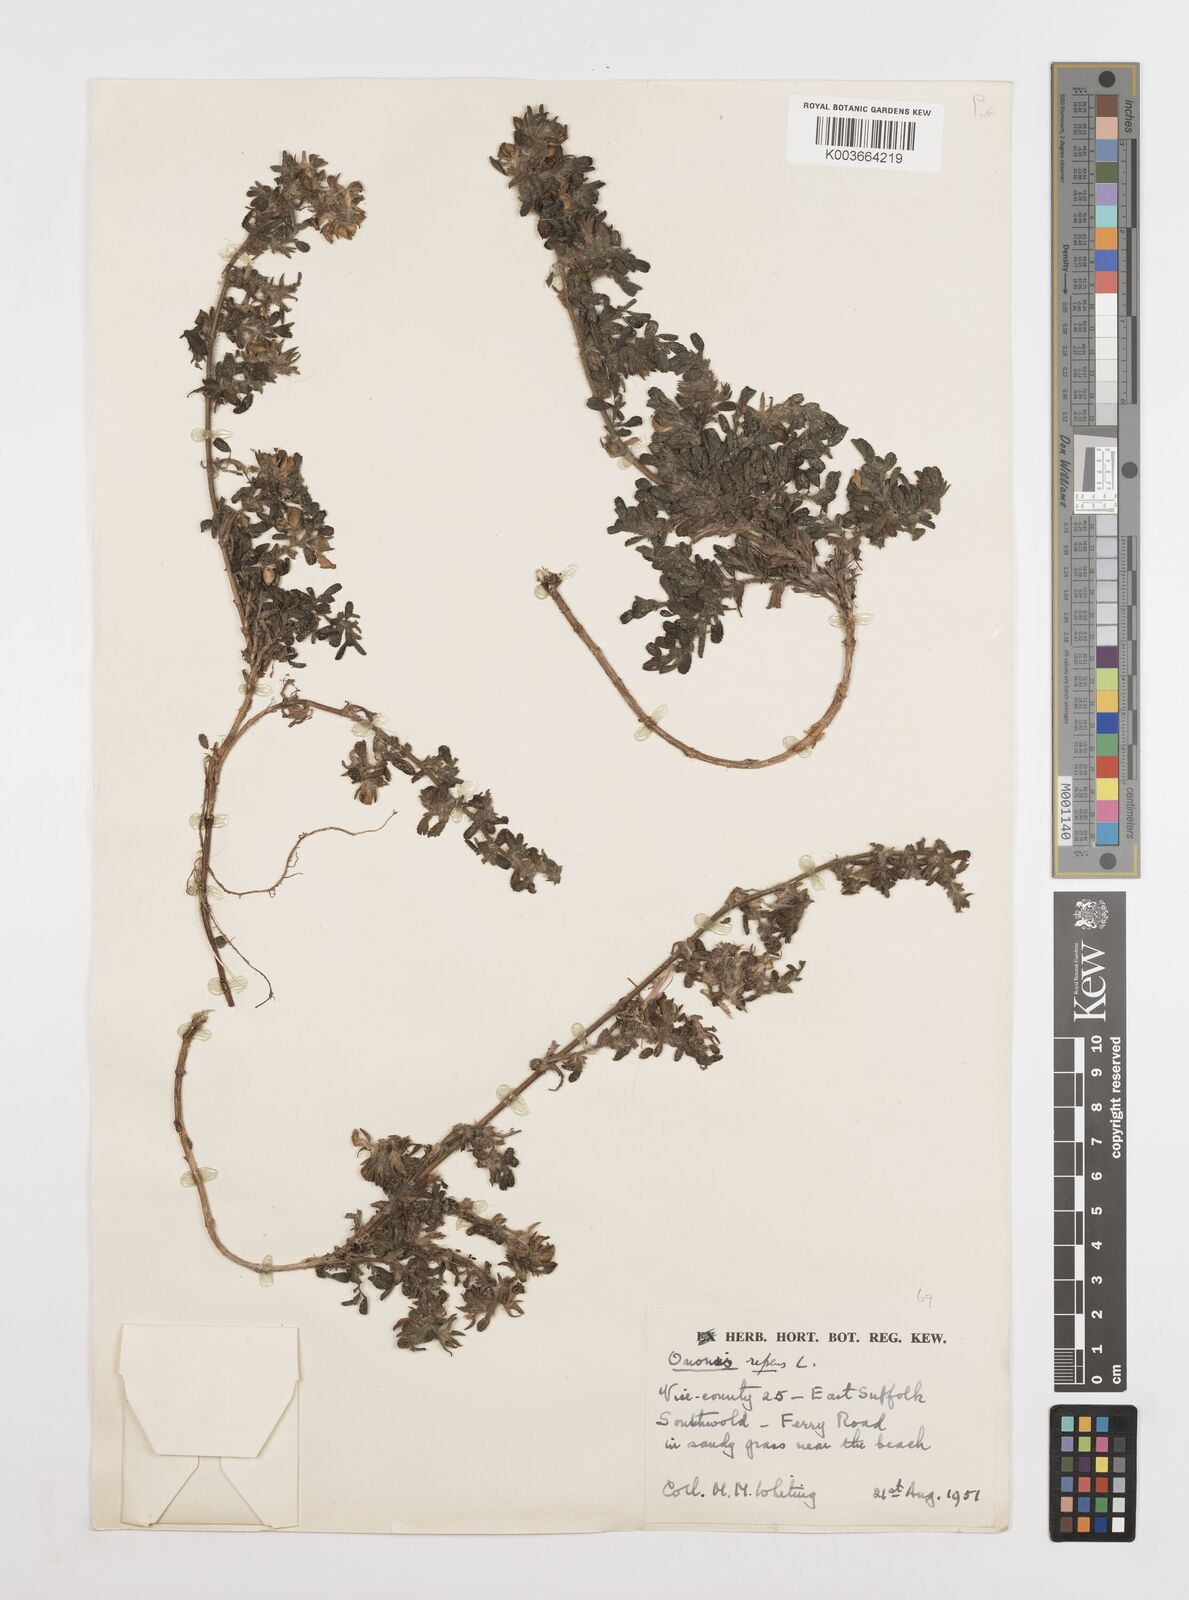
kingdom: Plantae
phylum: Tracheophyta
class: Magnoliopsida
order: Fabales
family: Fabaceae
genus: Ononis
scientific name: Ononis spinosa
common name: Spiny restharrow
